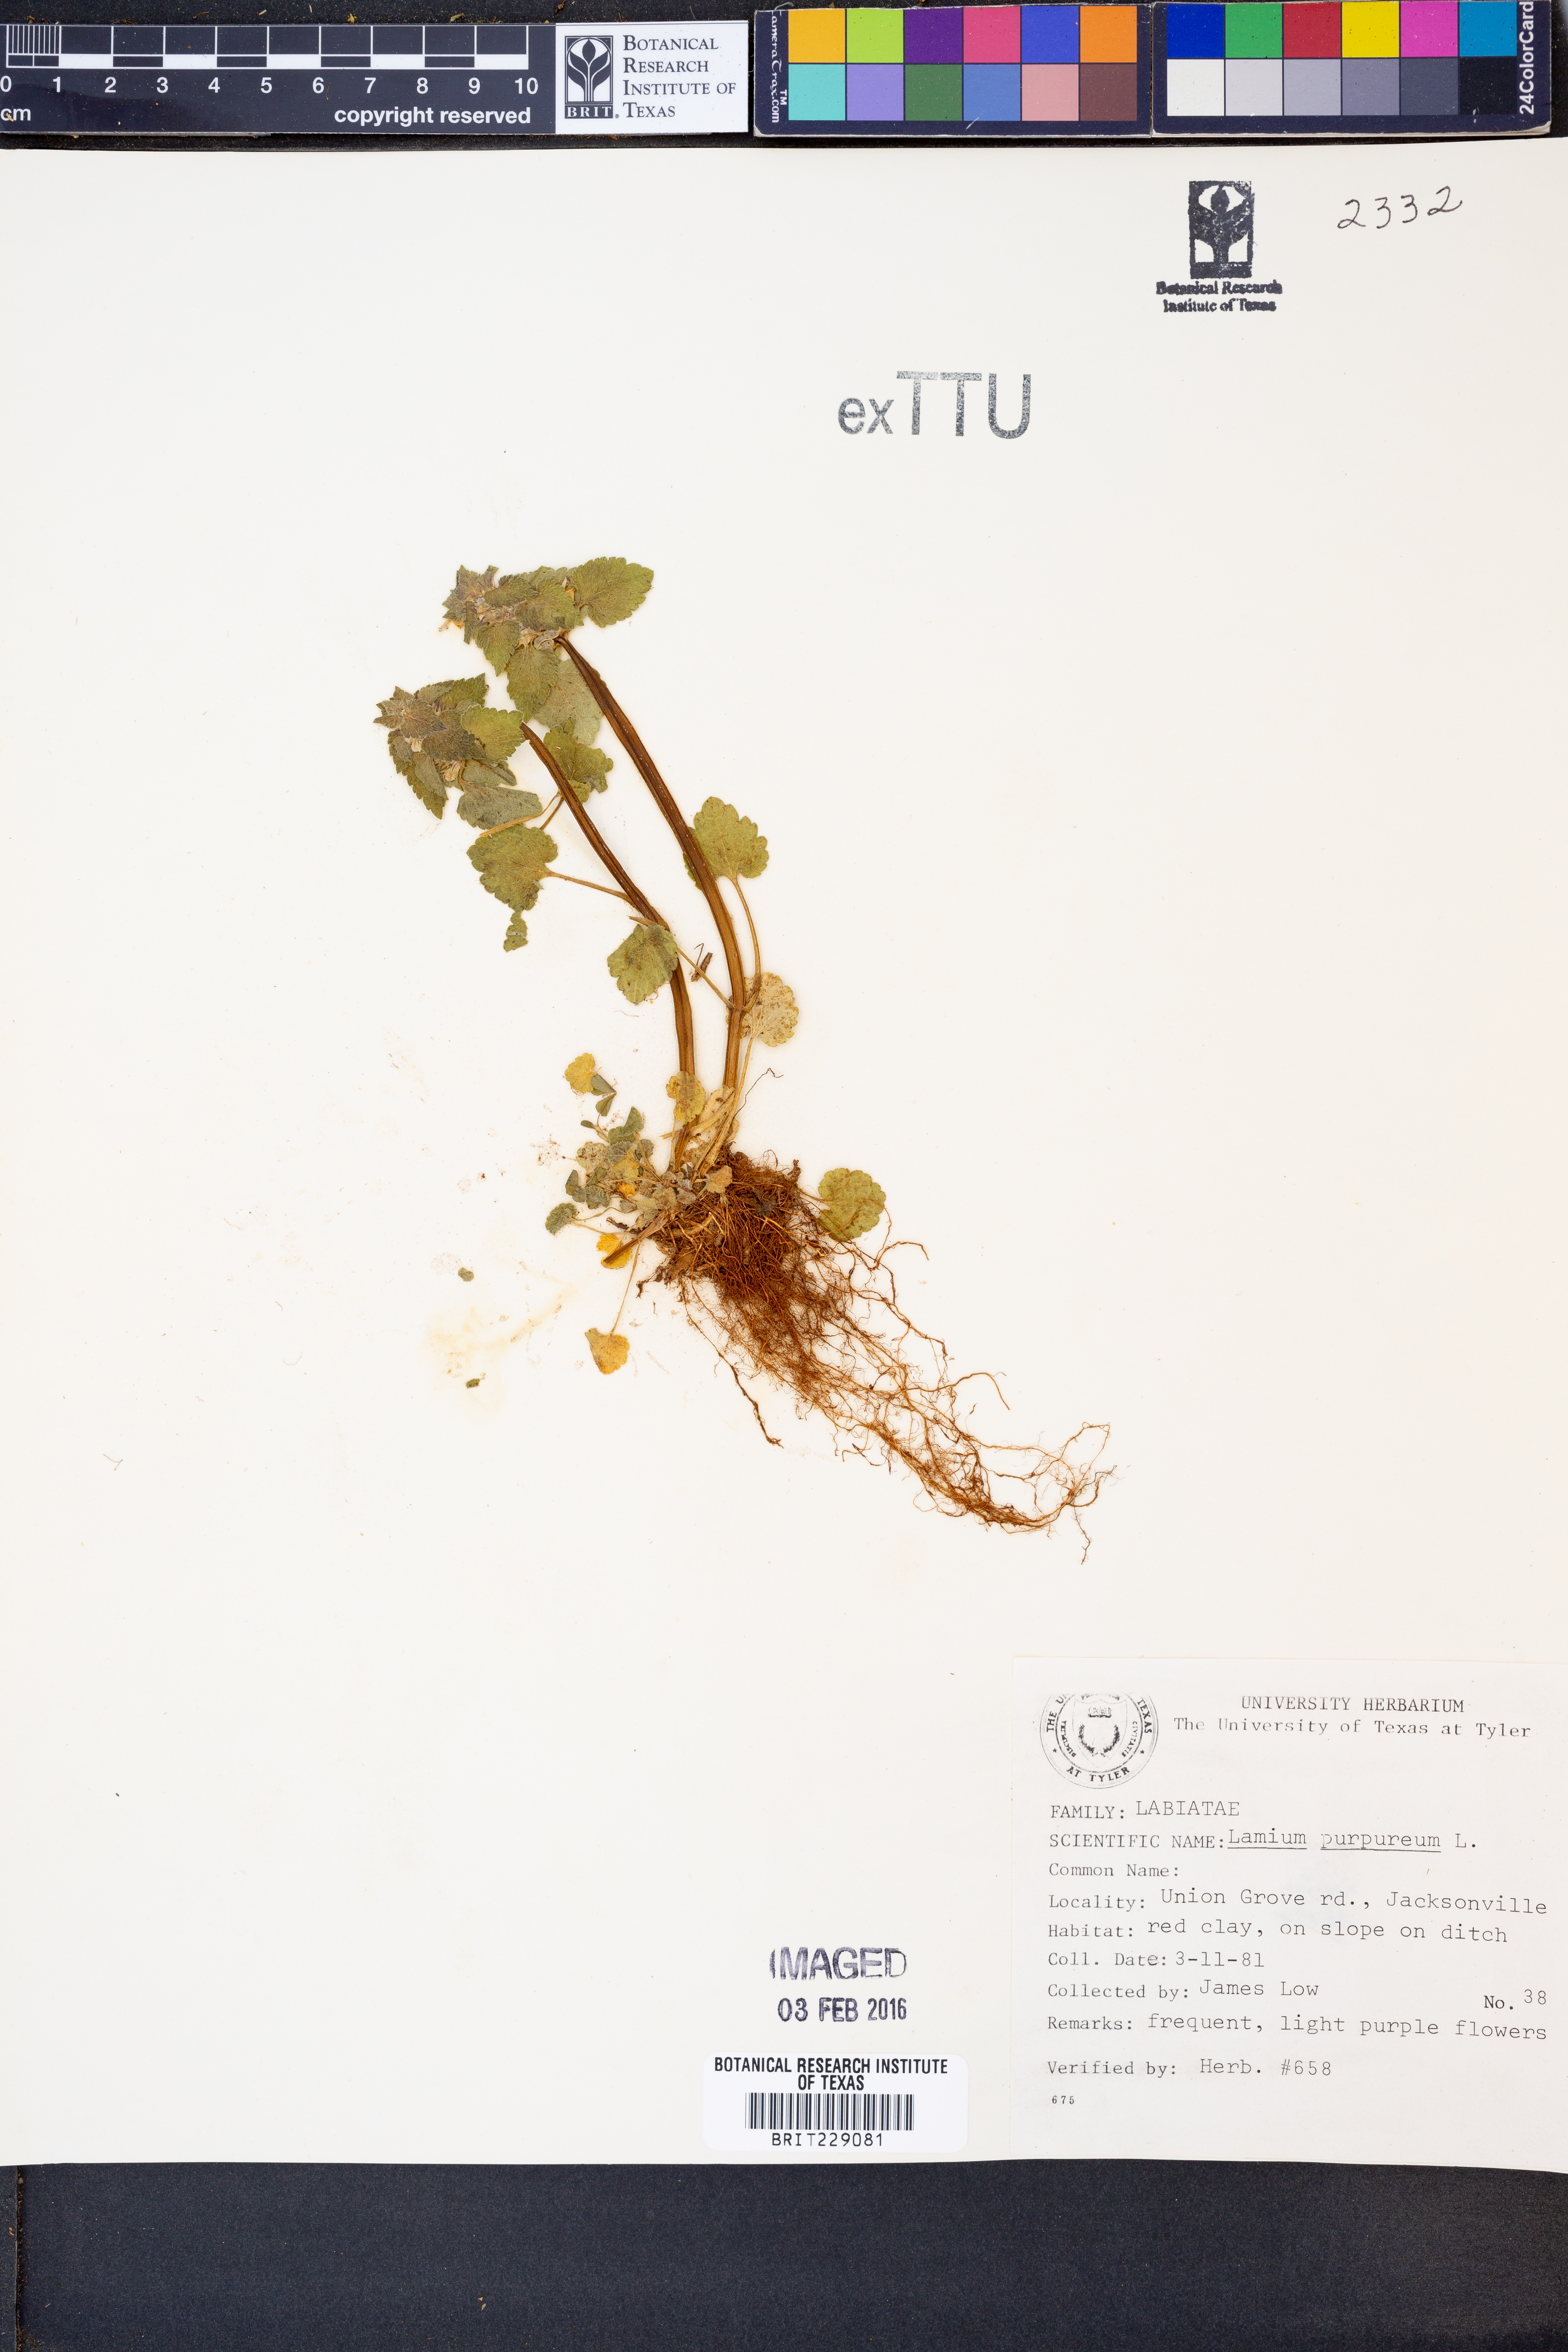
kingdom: Plantae
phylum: Tracheophyta
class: Magnoliopsida
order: Lamiales
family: Lamiaceae
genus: Lamium
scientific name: Lamium purpureum
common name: Red dead-nettle
